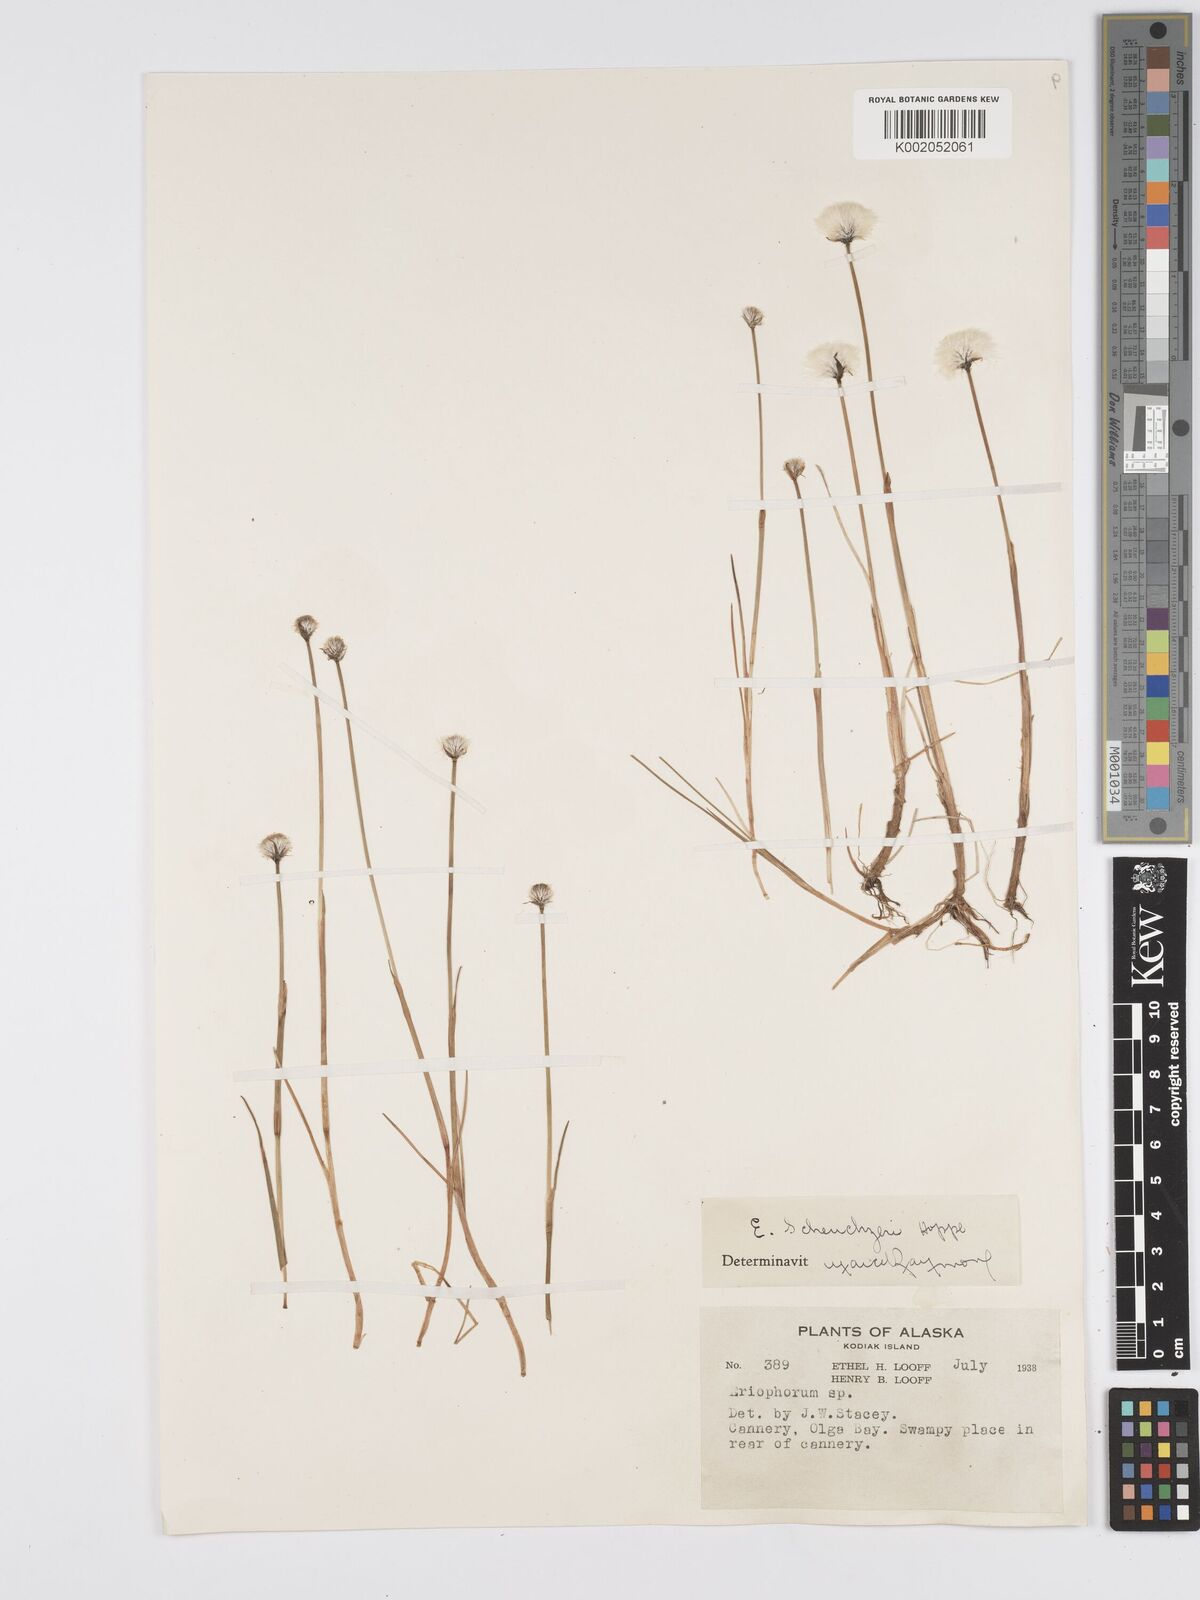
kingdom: Plantae
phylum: Tracheophyta
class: Liliopsida
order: Poales
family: Cyperaceae
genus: Eriophorum
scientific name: Eriophorum
